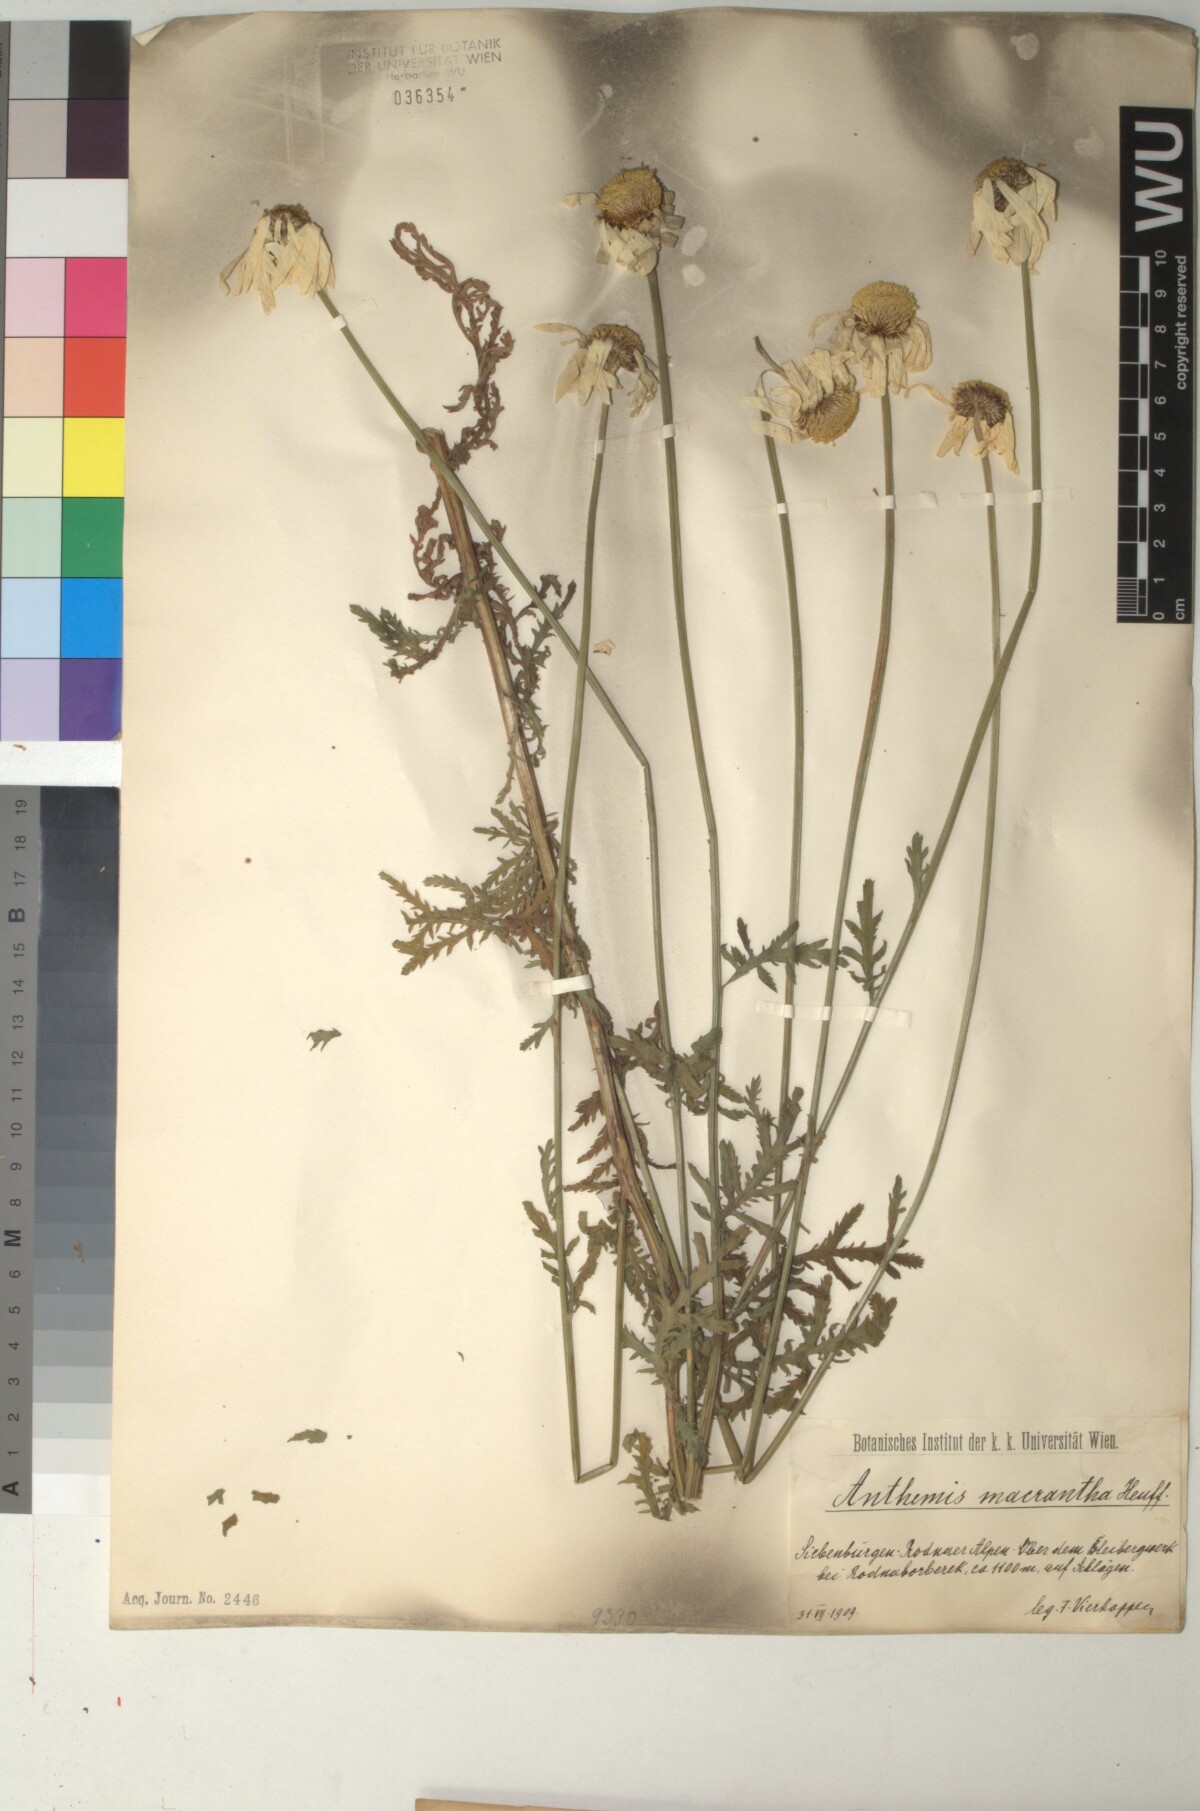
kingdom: Plantae
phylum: Tracheophyta
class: Magnoliopsida
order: Asterales
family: Asteraceae
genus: Cota
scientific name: Cota macrantha
